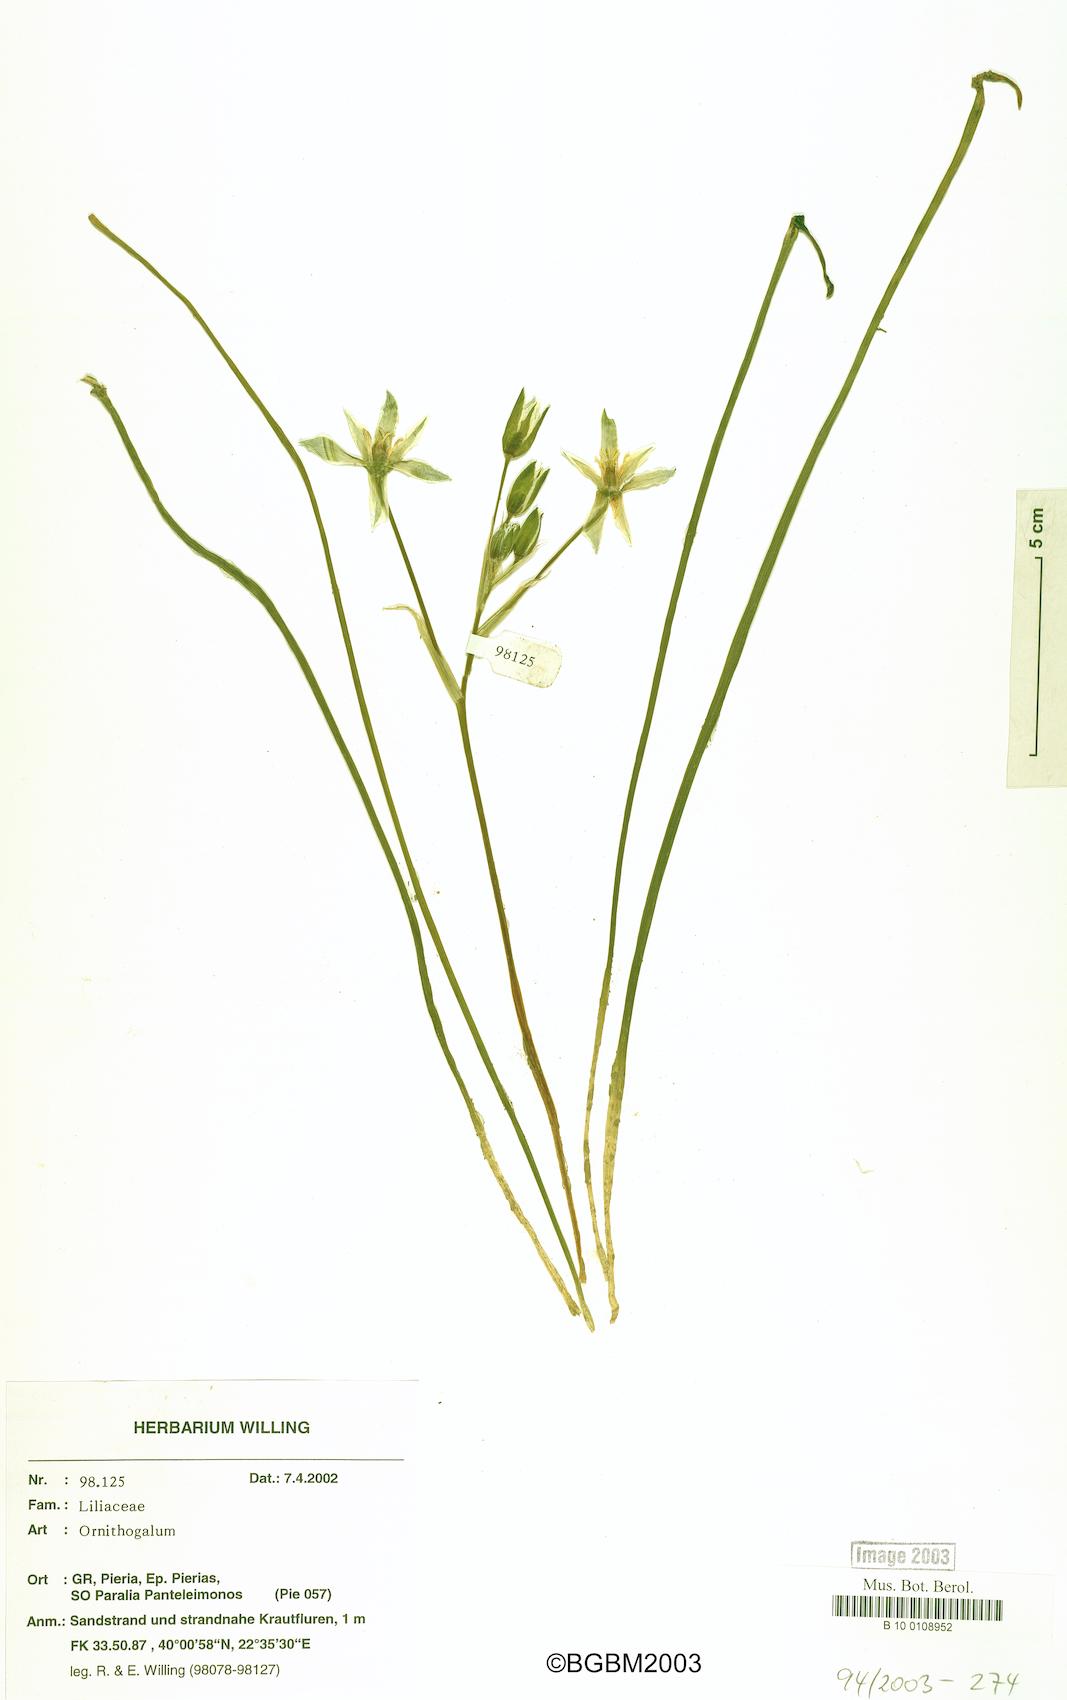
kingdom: Plantae
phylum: Tracheophyta
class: Liliopsida
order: Asparagales
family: Asparagaceae
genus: Ornithogalum
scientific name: Ornithogalum
